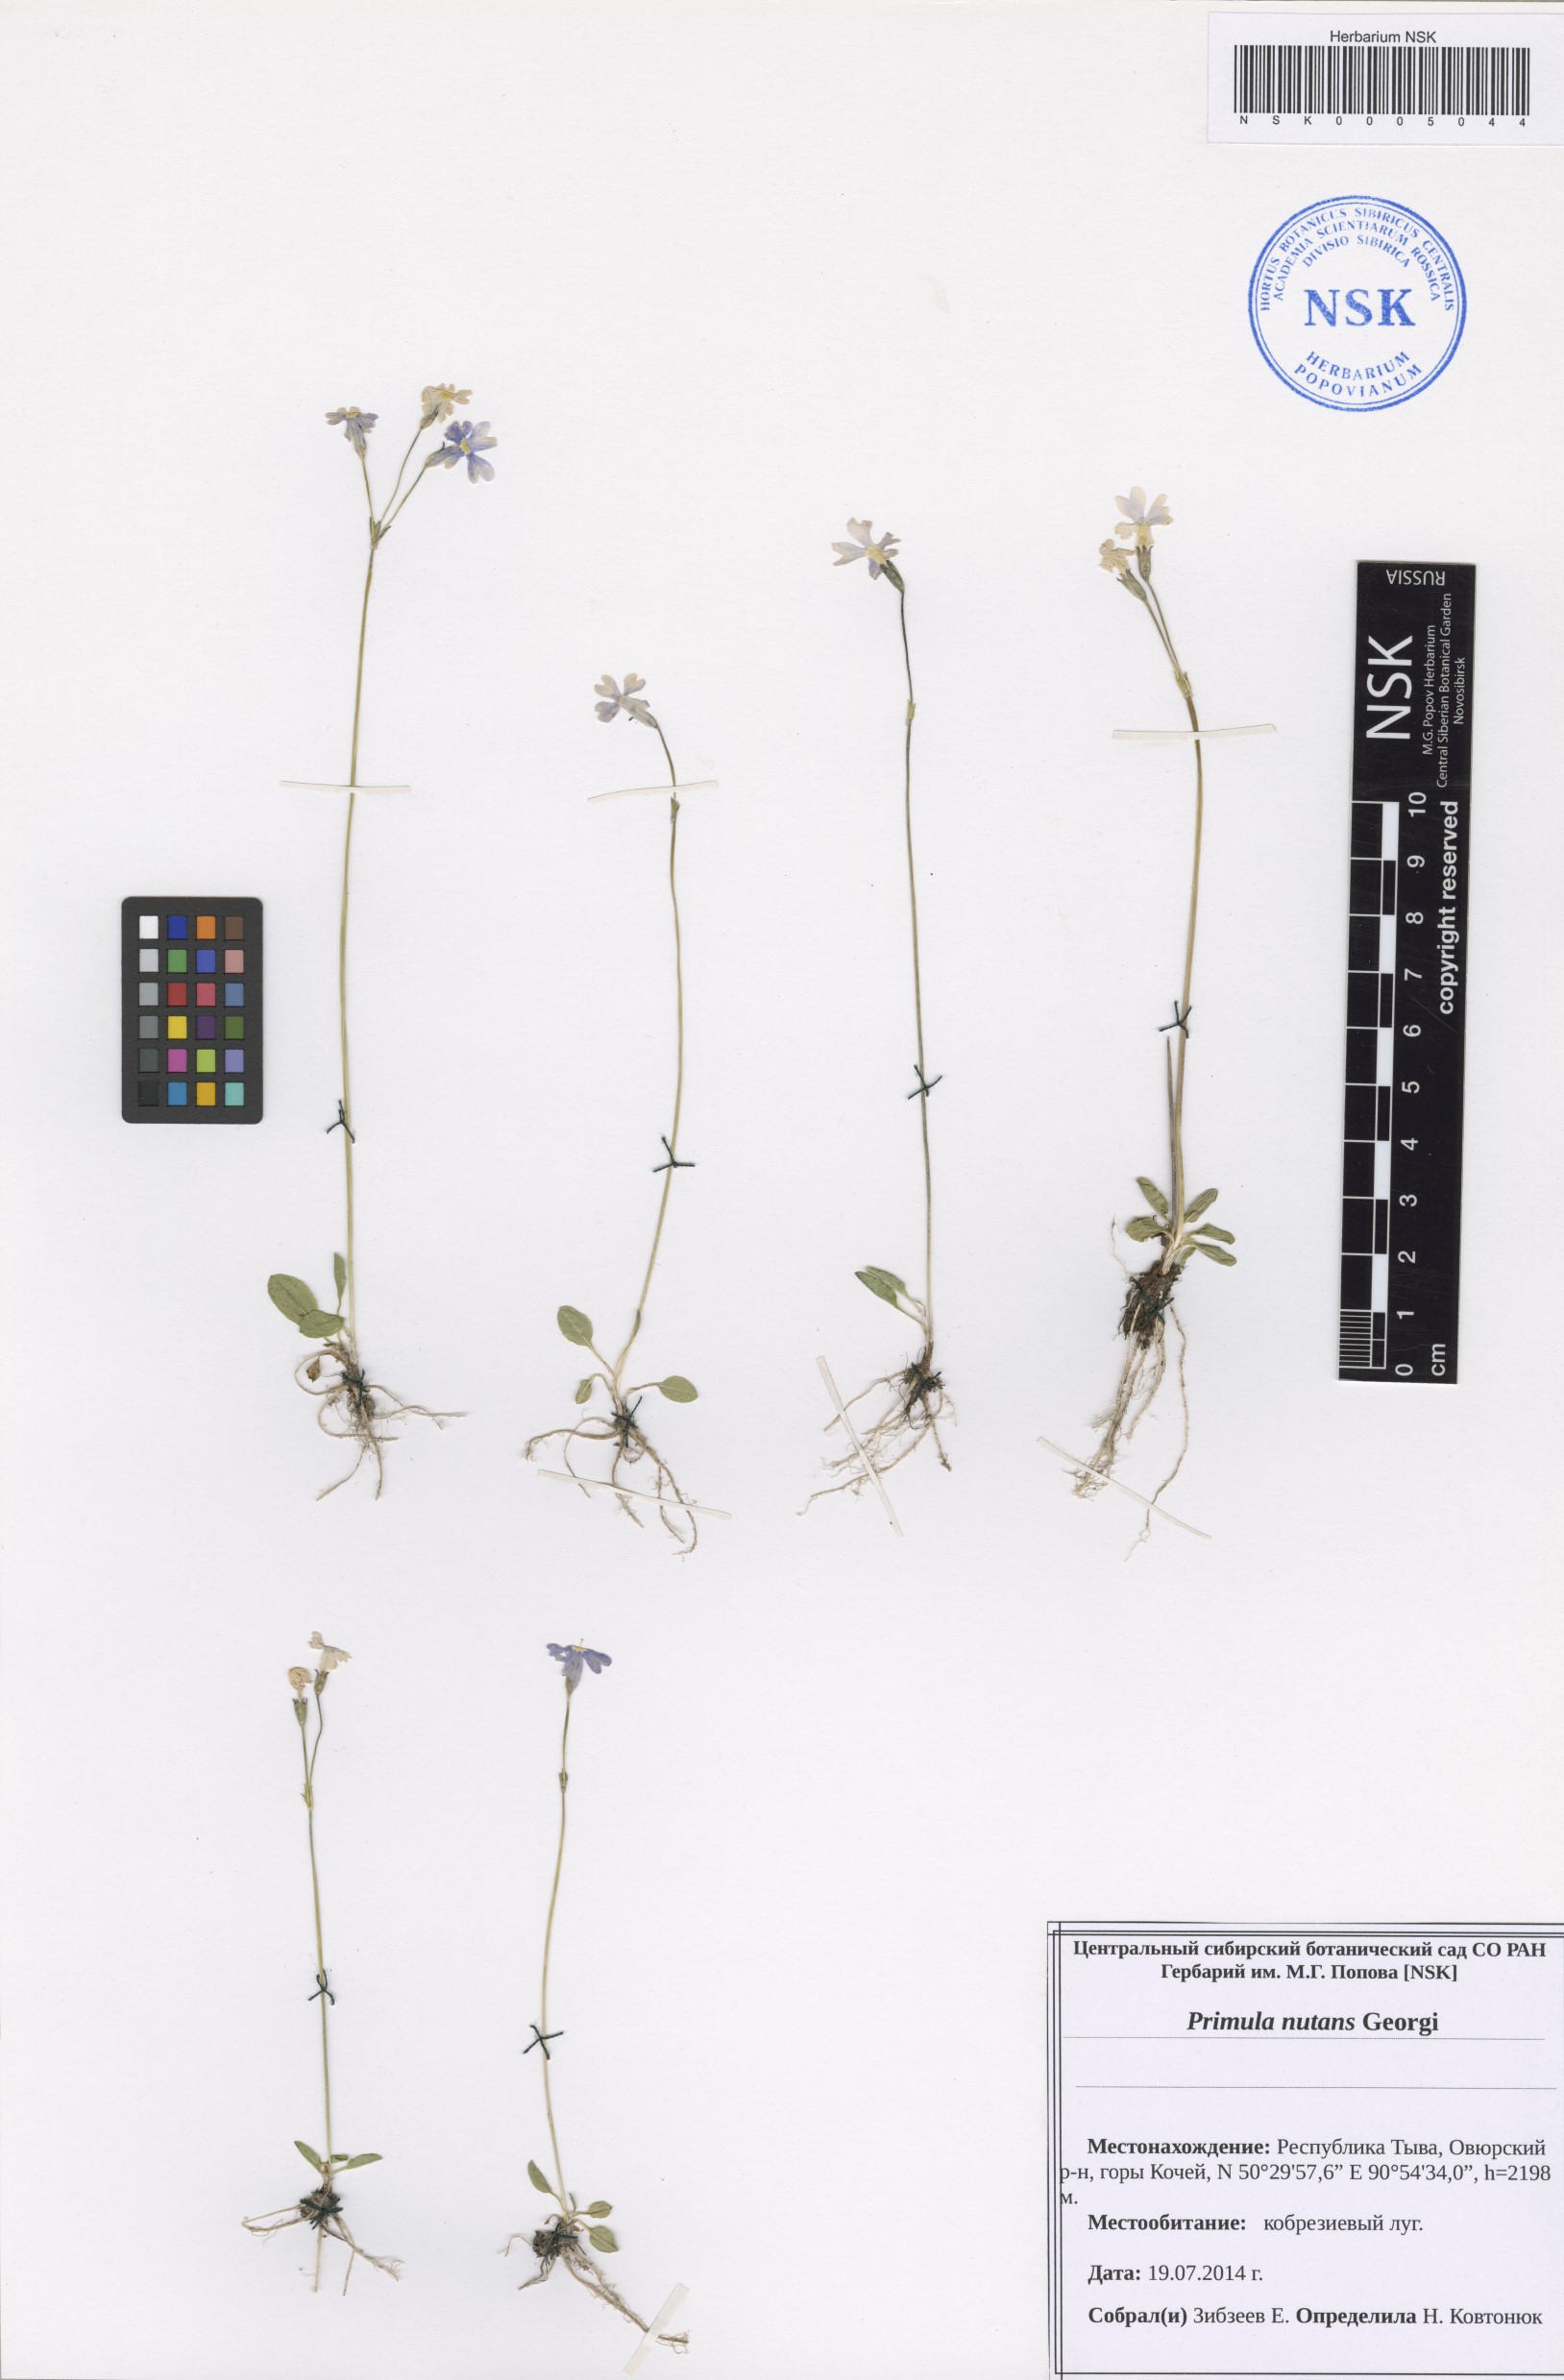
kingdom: Plantae
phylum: Tracheophyta
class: Magnoliopsida
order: Ericales
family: Primulaceae
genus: Primula
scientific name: Primula nutans
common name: Siberian primrose
